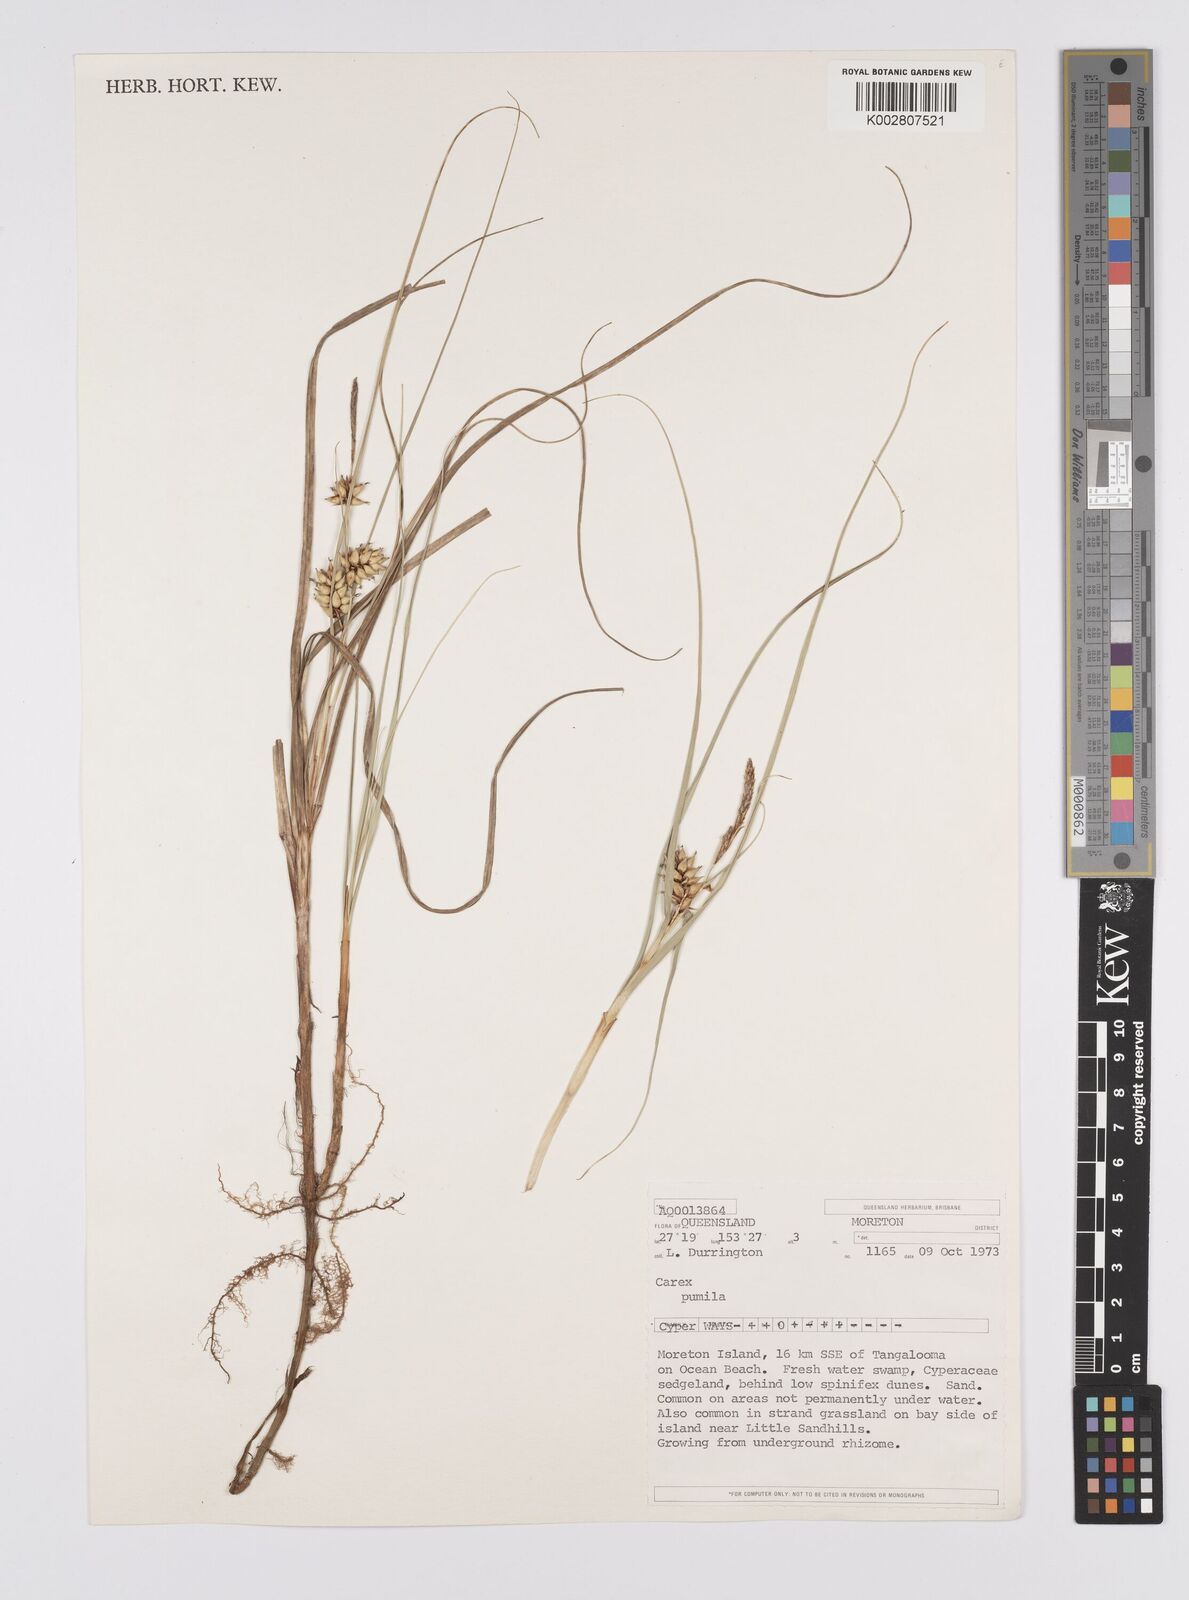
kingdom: Plantae
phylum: Tracheophyta
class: Liliopsida
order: Poales
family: Cyperaceae
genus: Carex
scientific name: Carex pumila
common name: Dwarf sedge
